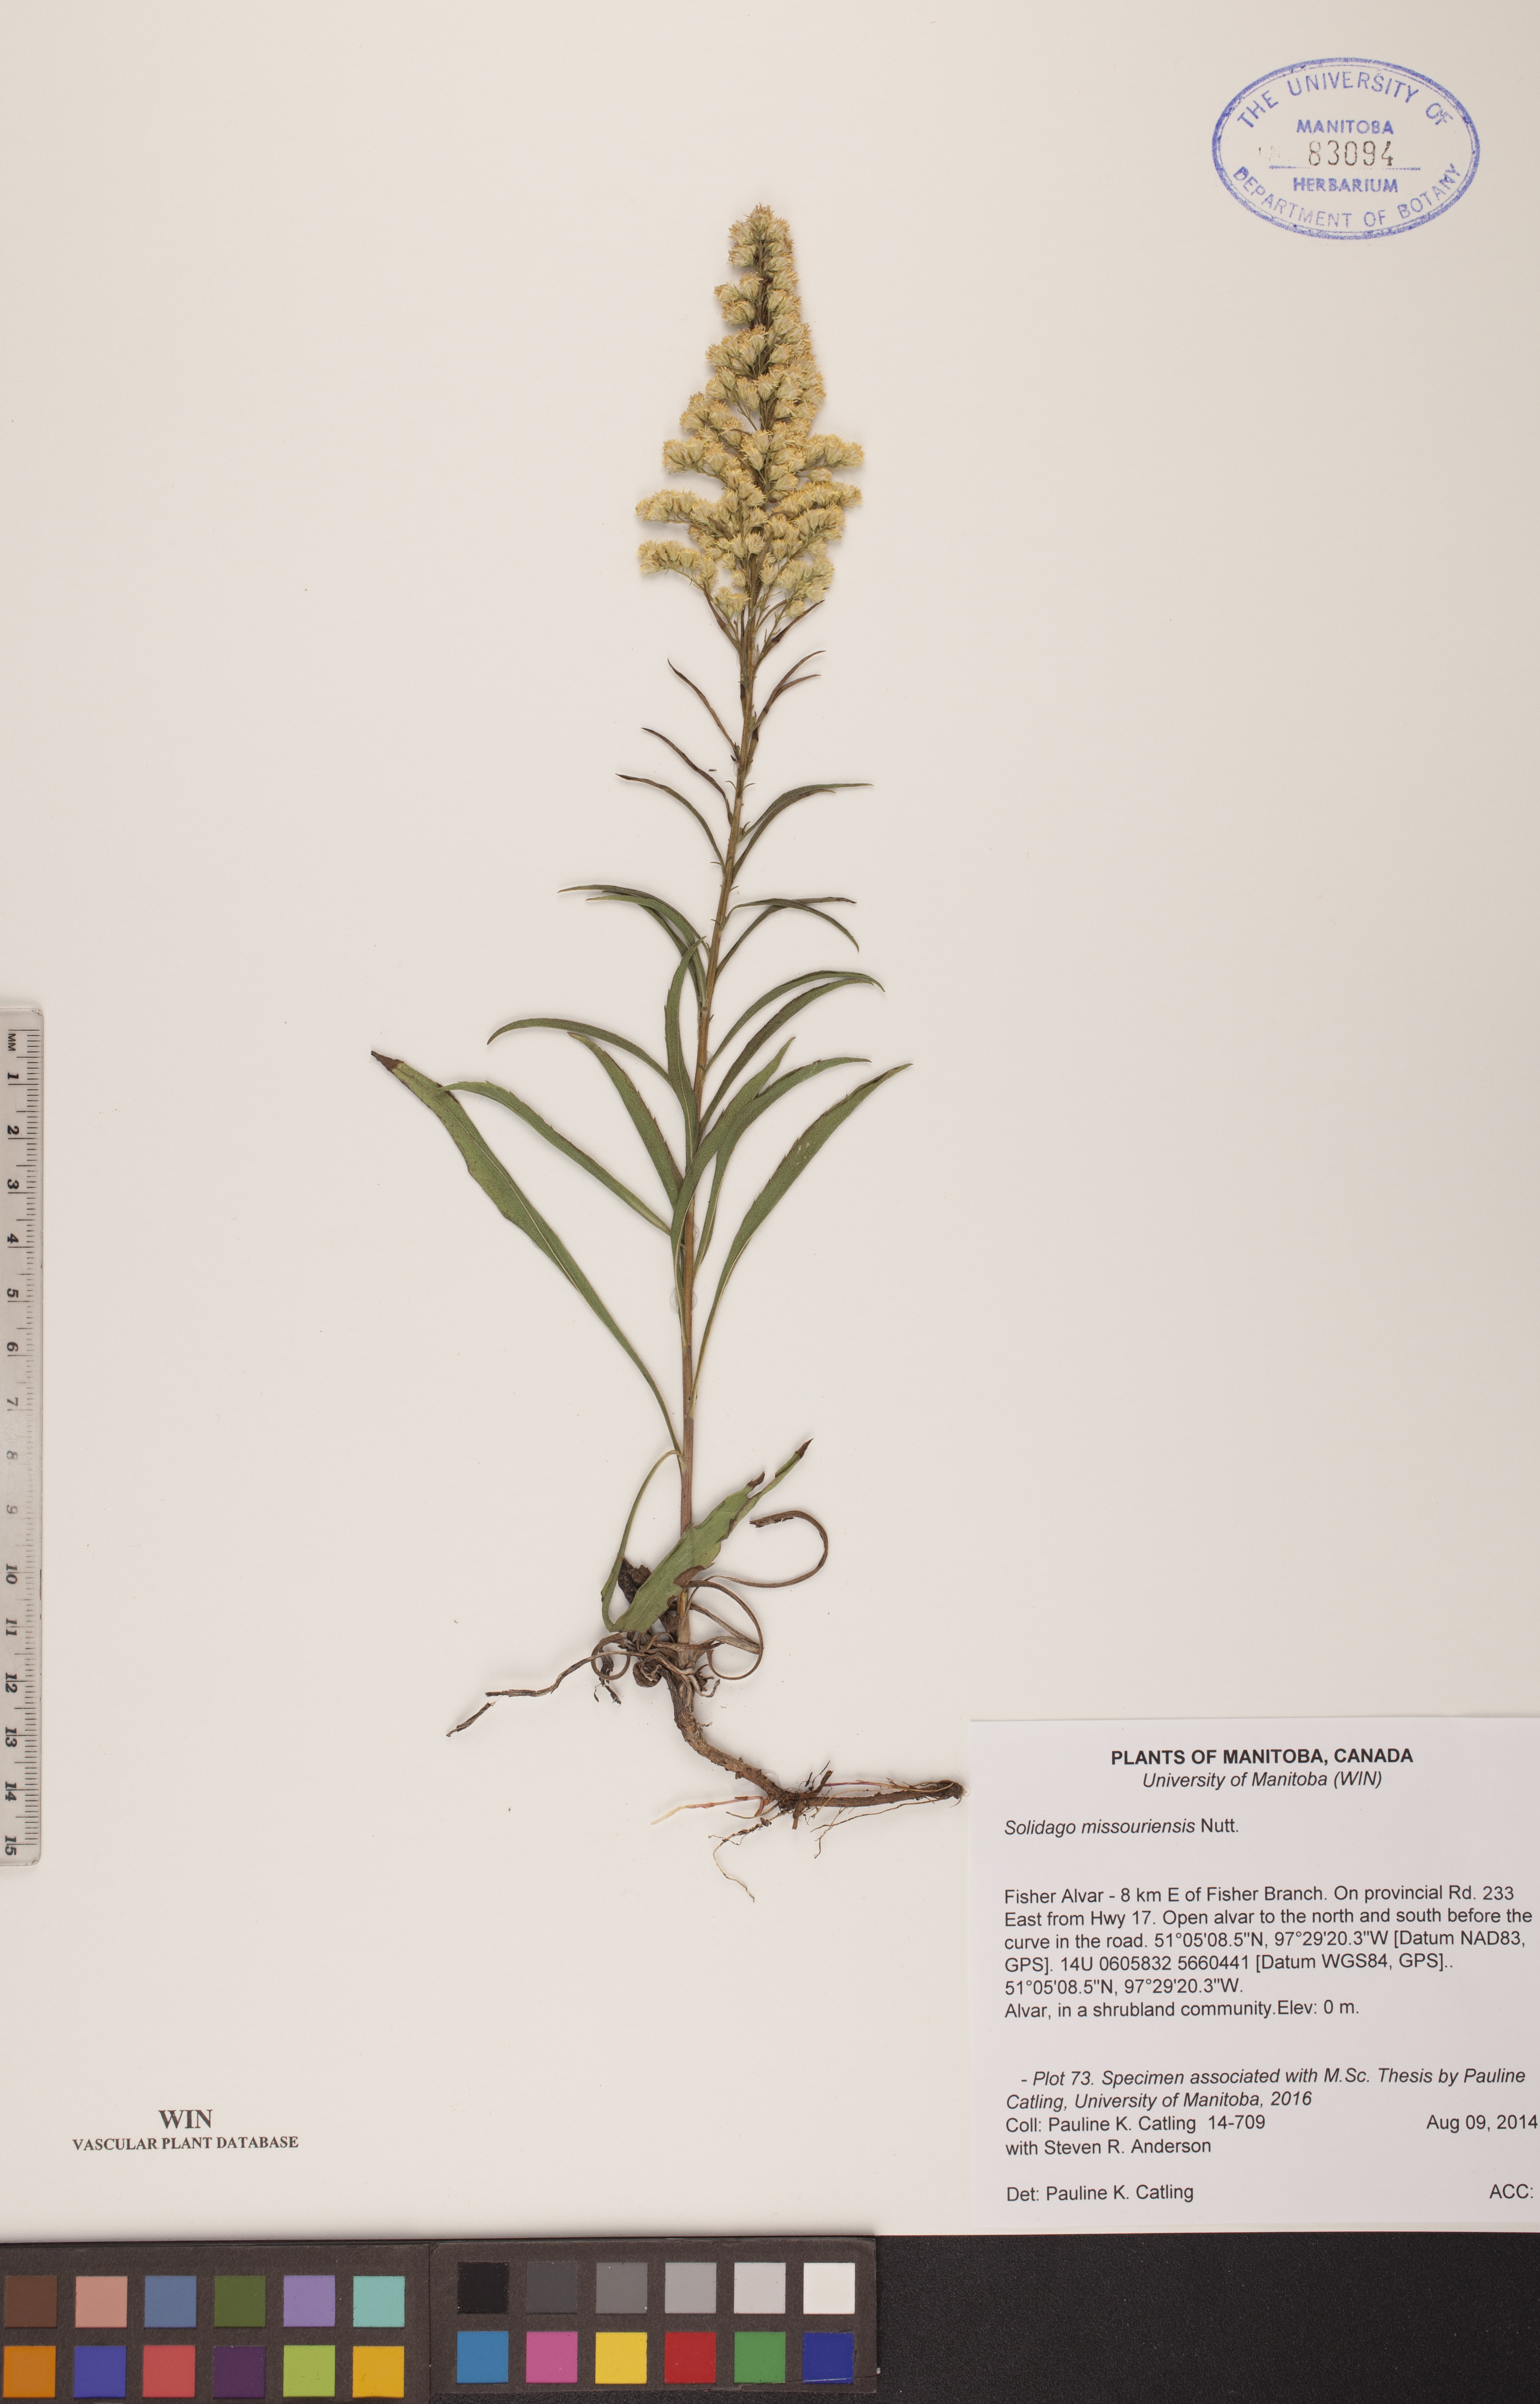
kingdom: Plantae
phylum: Tracheophyta
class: Magnoliopsida
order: Asterales
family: Asteraceae
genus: Solidago
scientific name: Solidago missouriensis
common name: Prairie goldenrod
